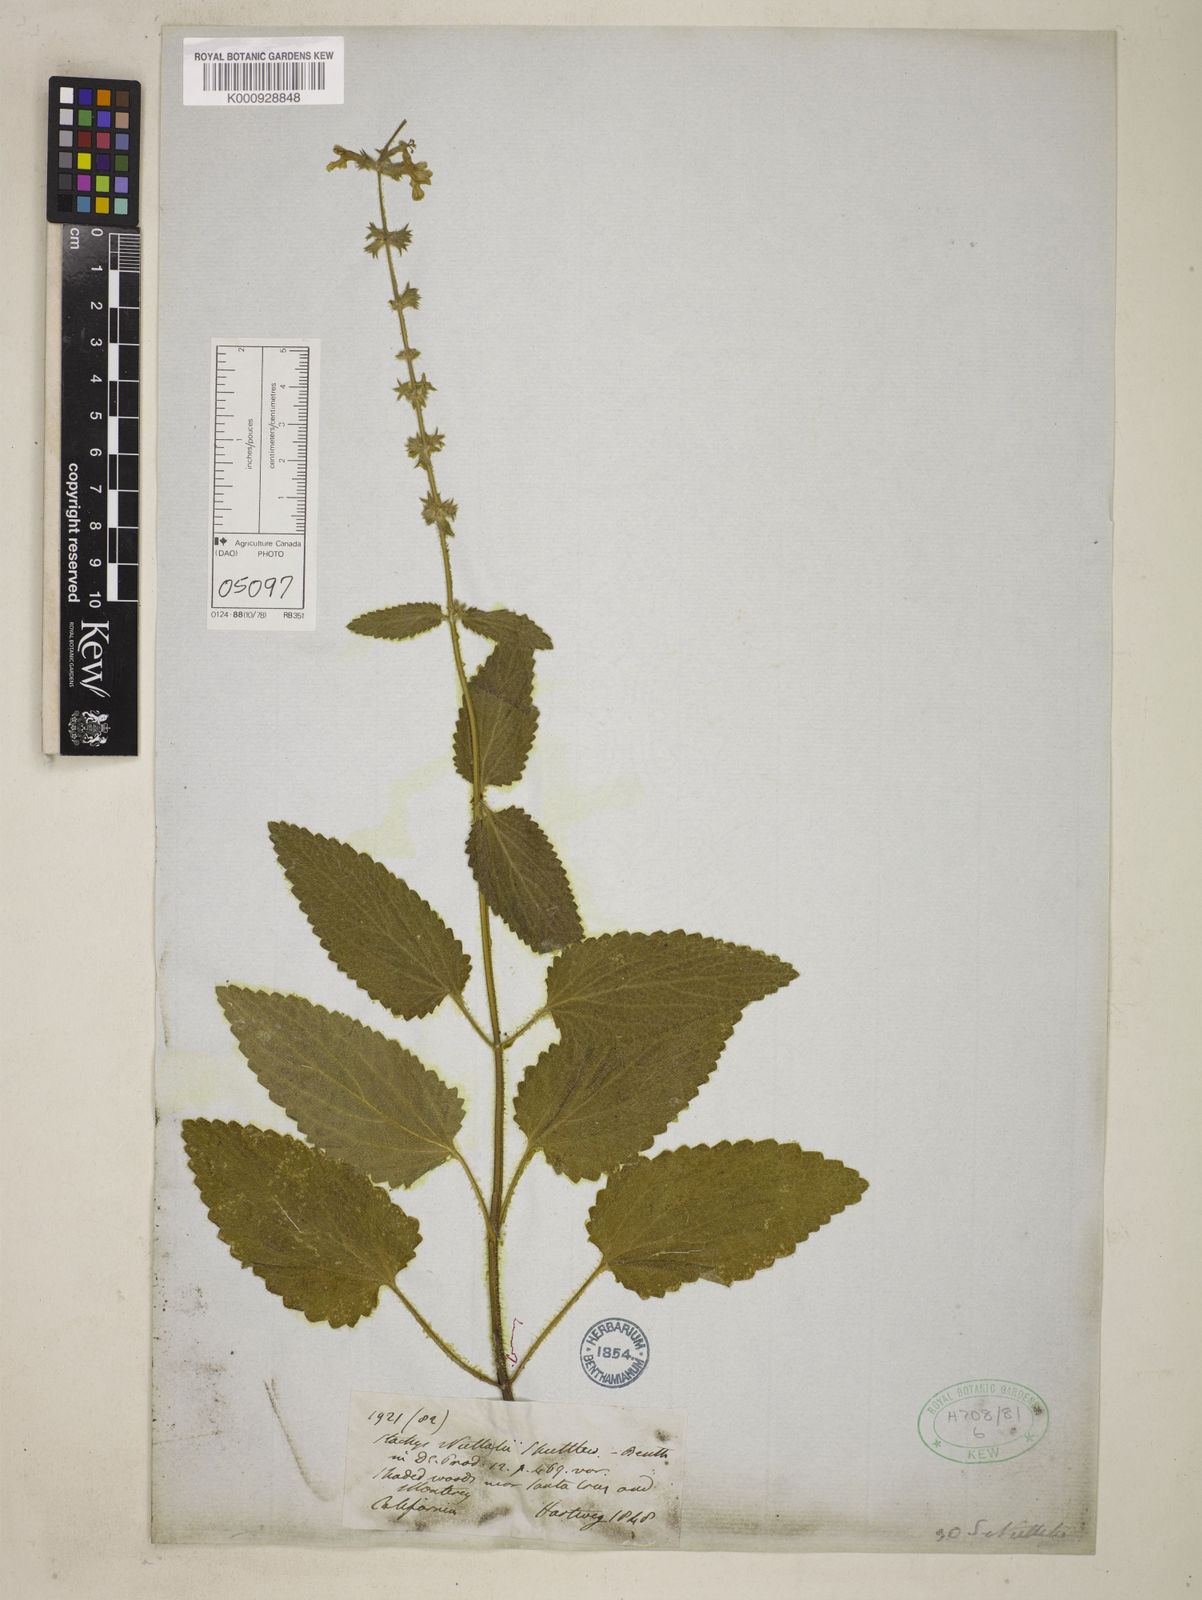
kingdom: Plantae
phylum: Tracheophyta
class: Magnoliopsida
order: Lamiales
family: Lamiaceae
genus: Stachys
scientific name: Stachys rigida
